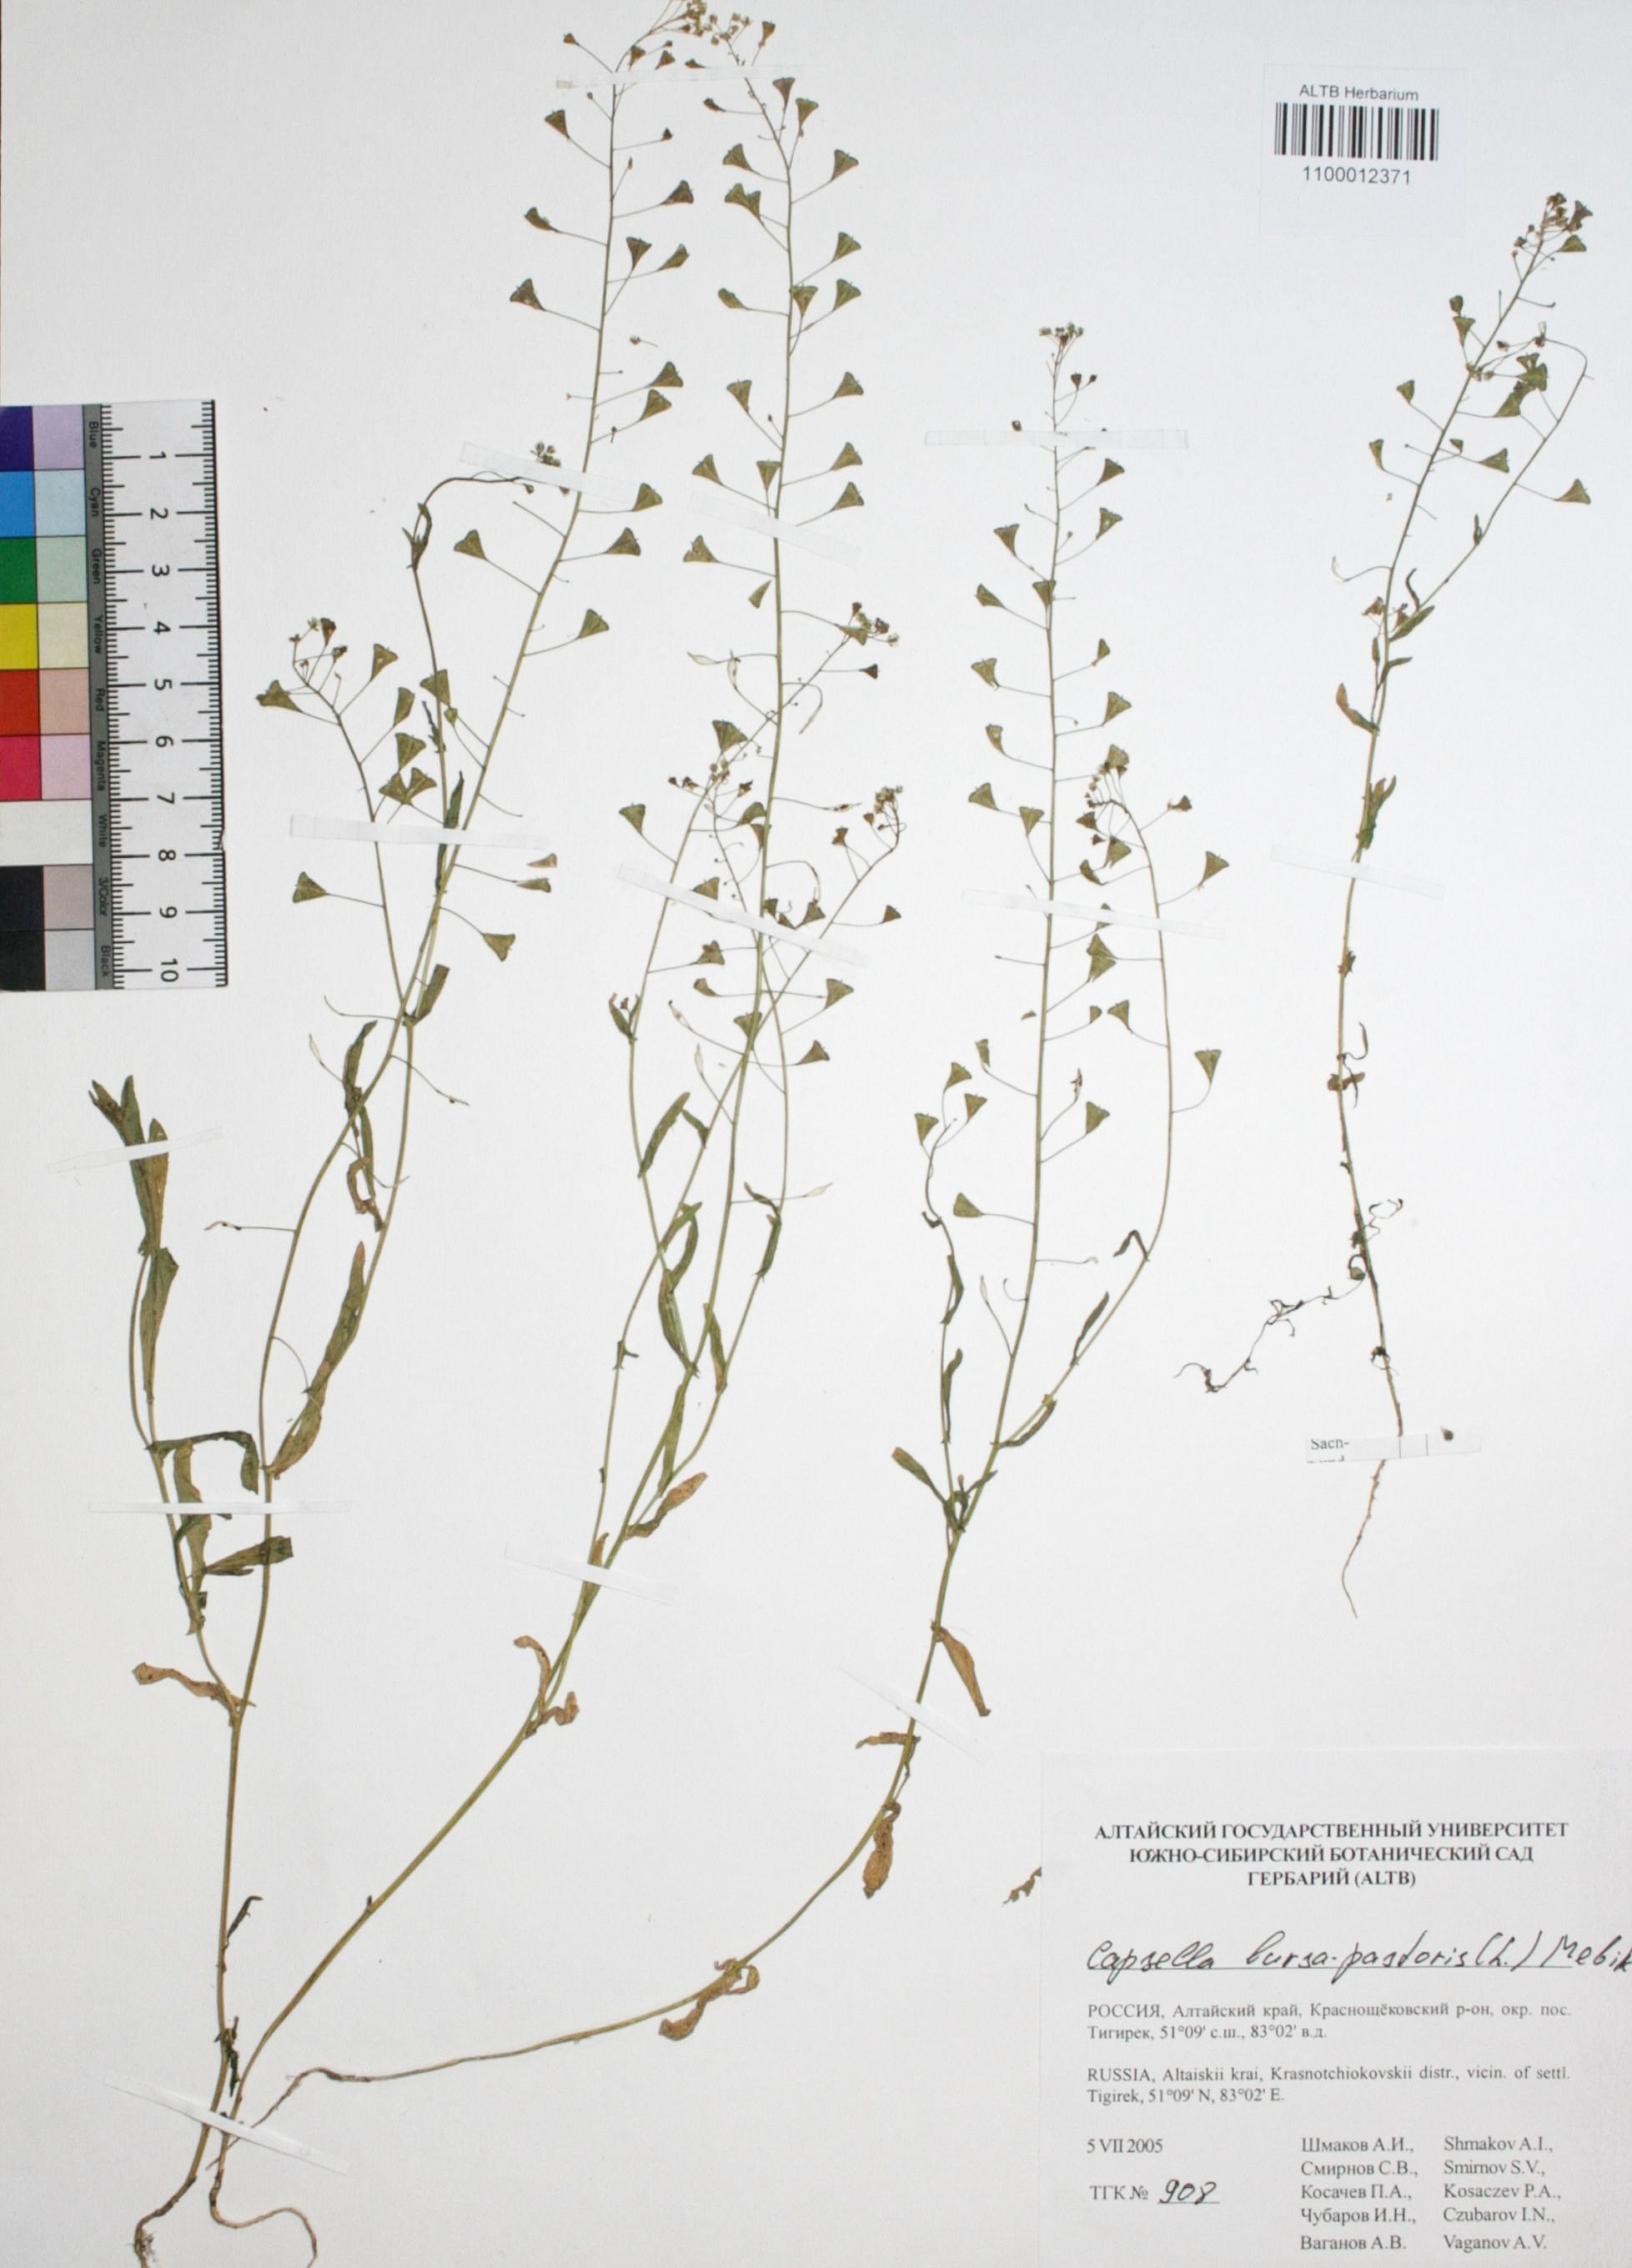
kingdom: Plantae
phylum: Tracheophyta
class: Magnoliopsida
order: Brassicales
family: Brassicaceae
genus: Capsella
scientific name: Capsella bursa-pastoris
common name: Shepherd's purse
